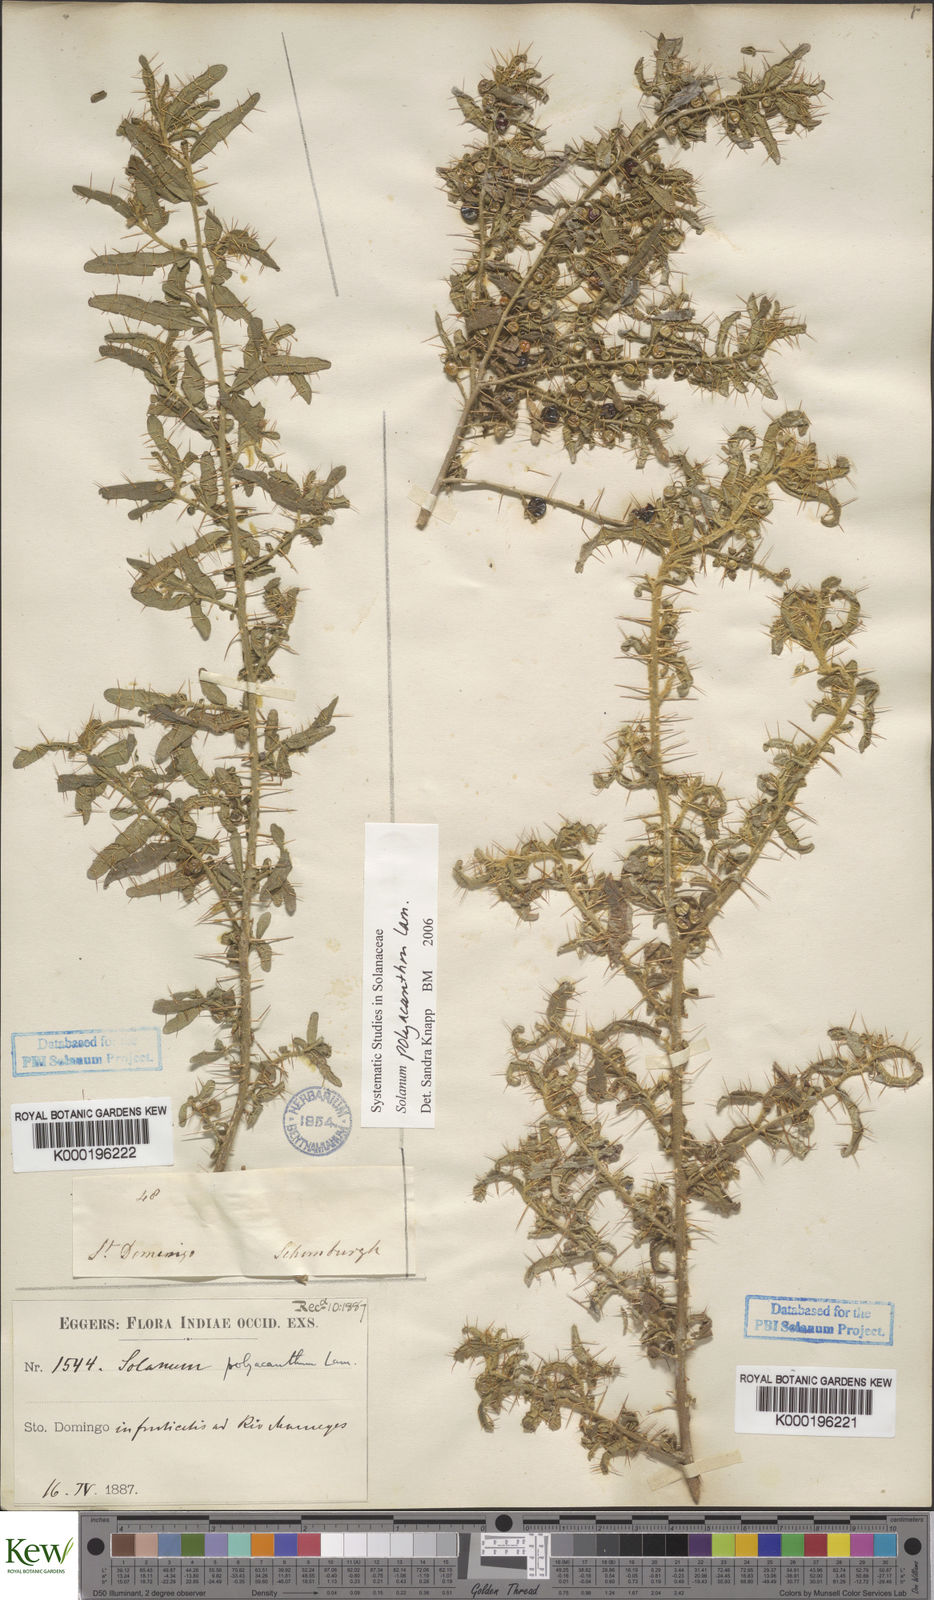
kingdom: Plantae
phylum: Tracheophyta
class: Magnoliopsida
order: Solanales
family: Solanaceae
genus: Solanum
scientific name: Solanum polyacanthos
